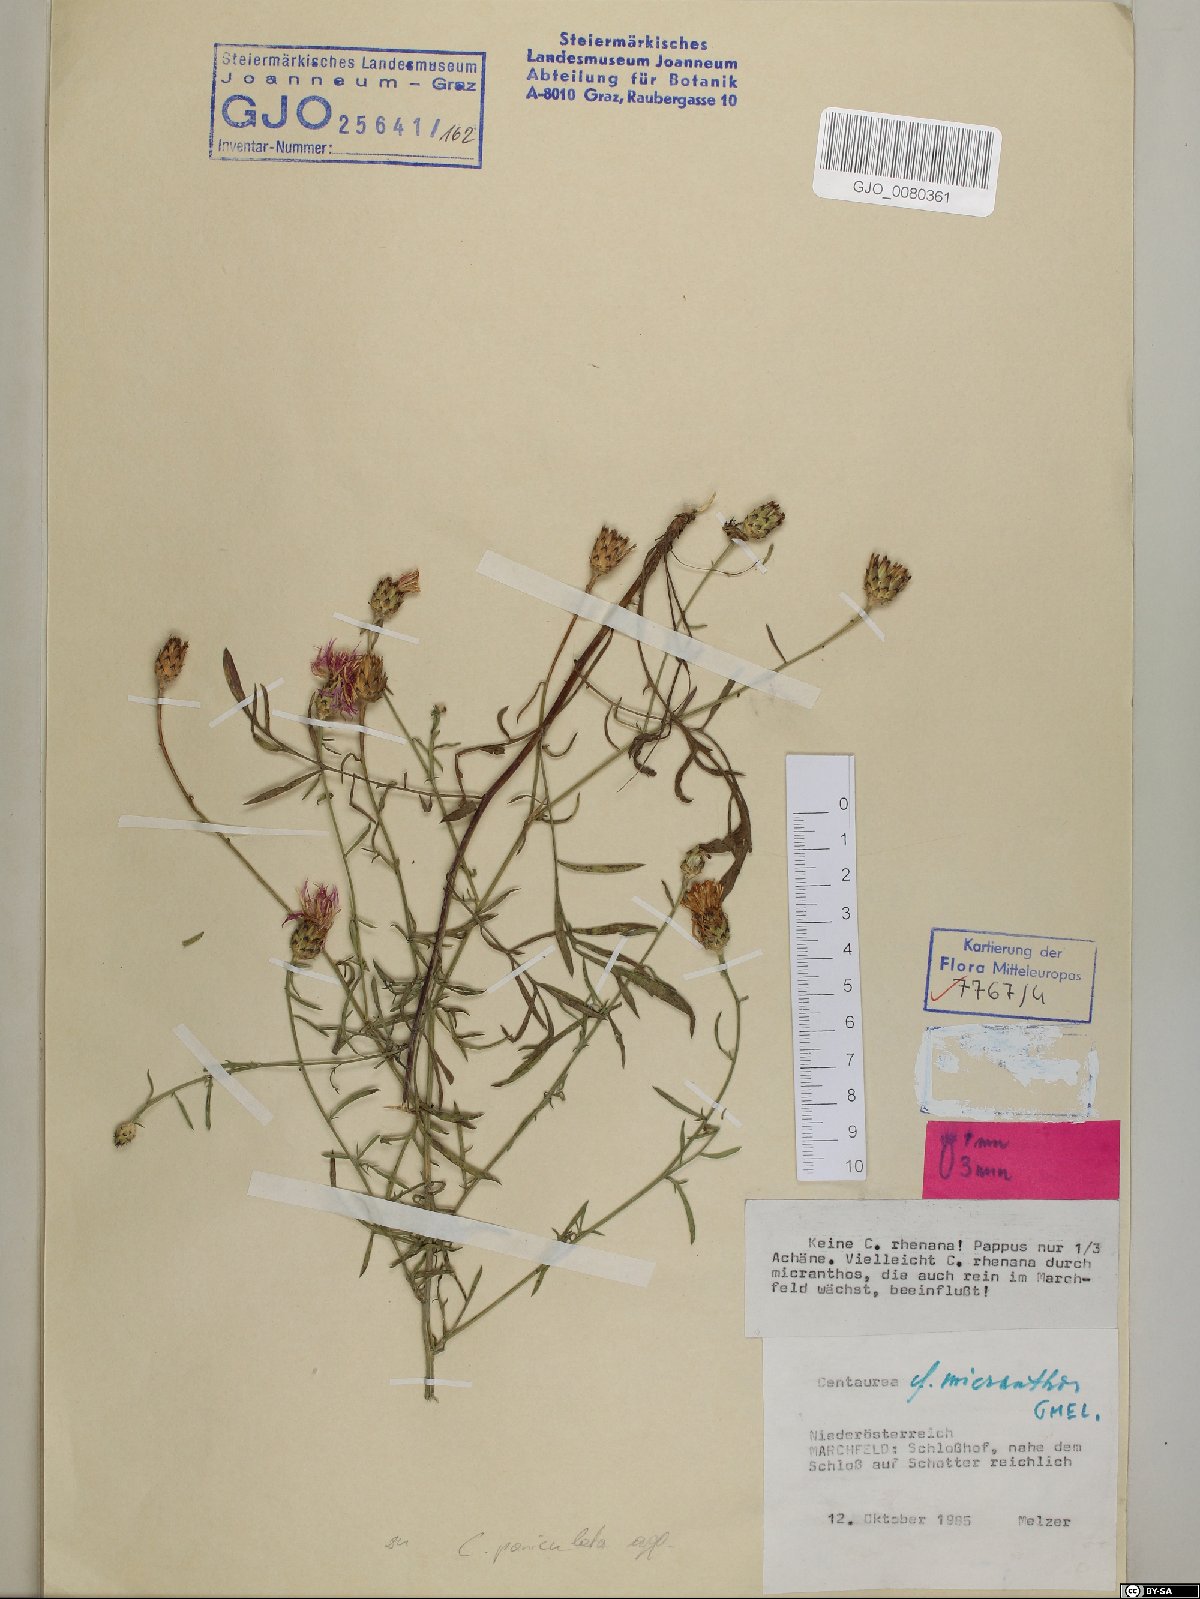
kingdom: Plantae
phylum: Tracheophyta
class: Magnoliopsida
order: Asterales
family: Asteraceae
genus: Centaurea
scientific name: Centaurea micranthos
